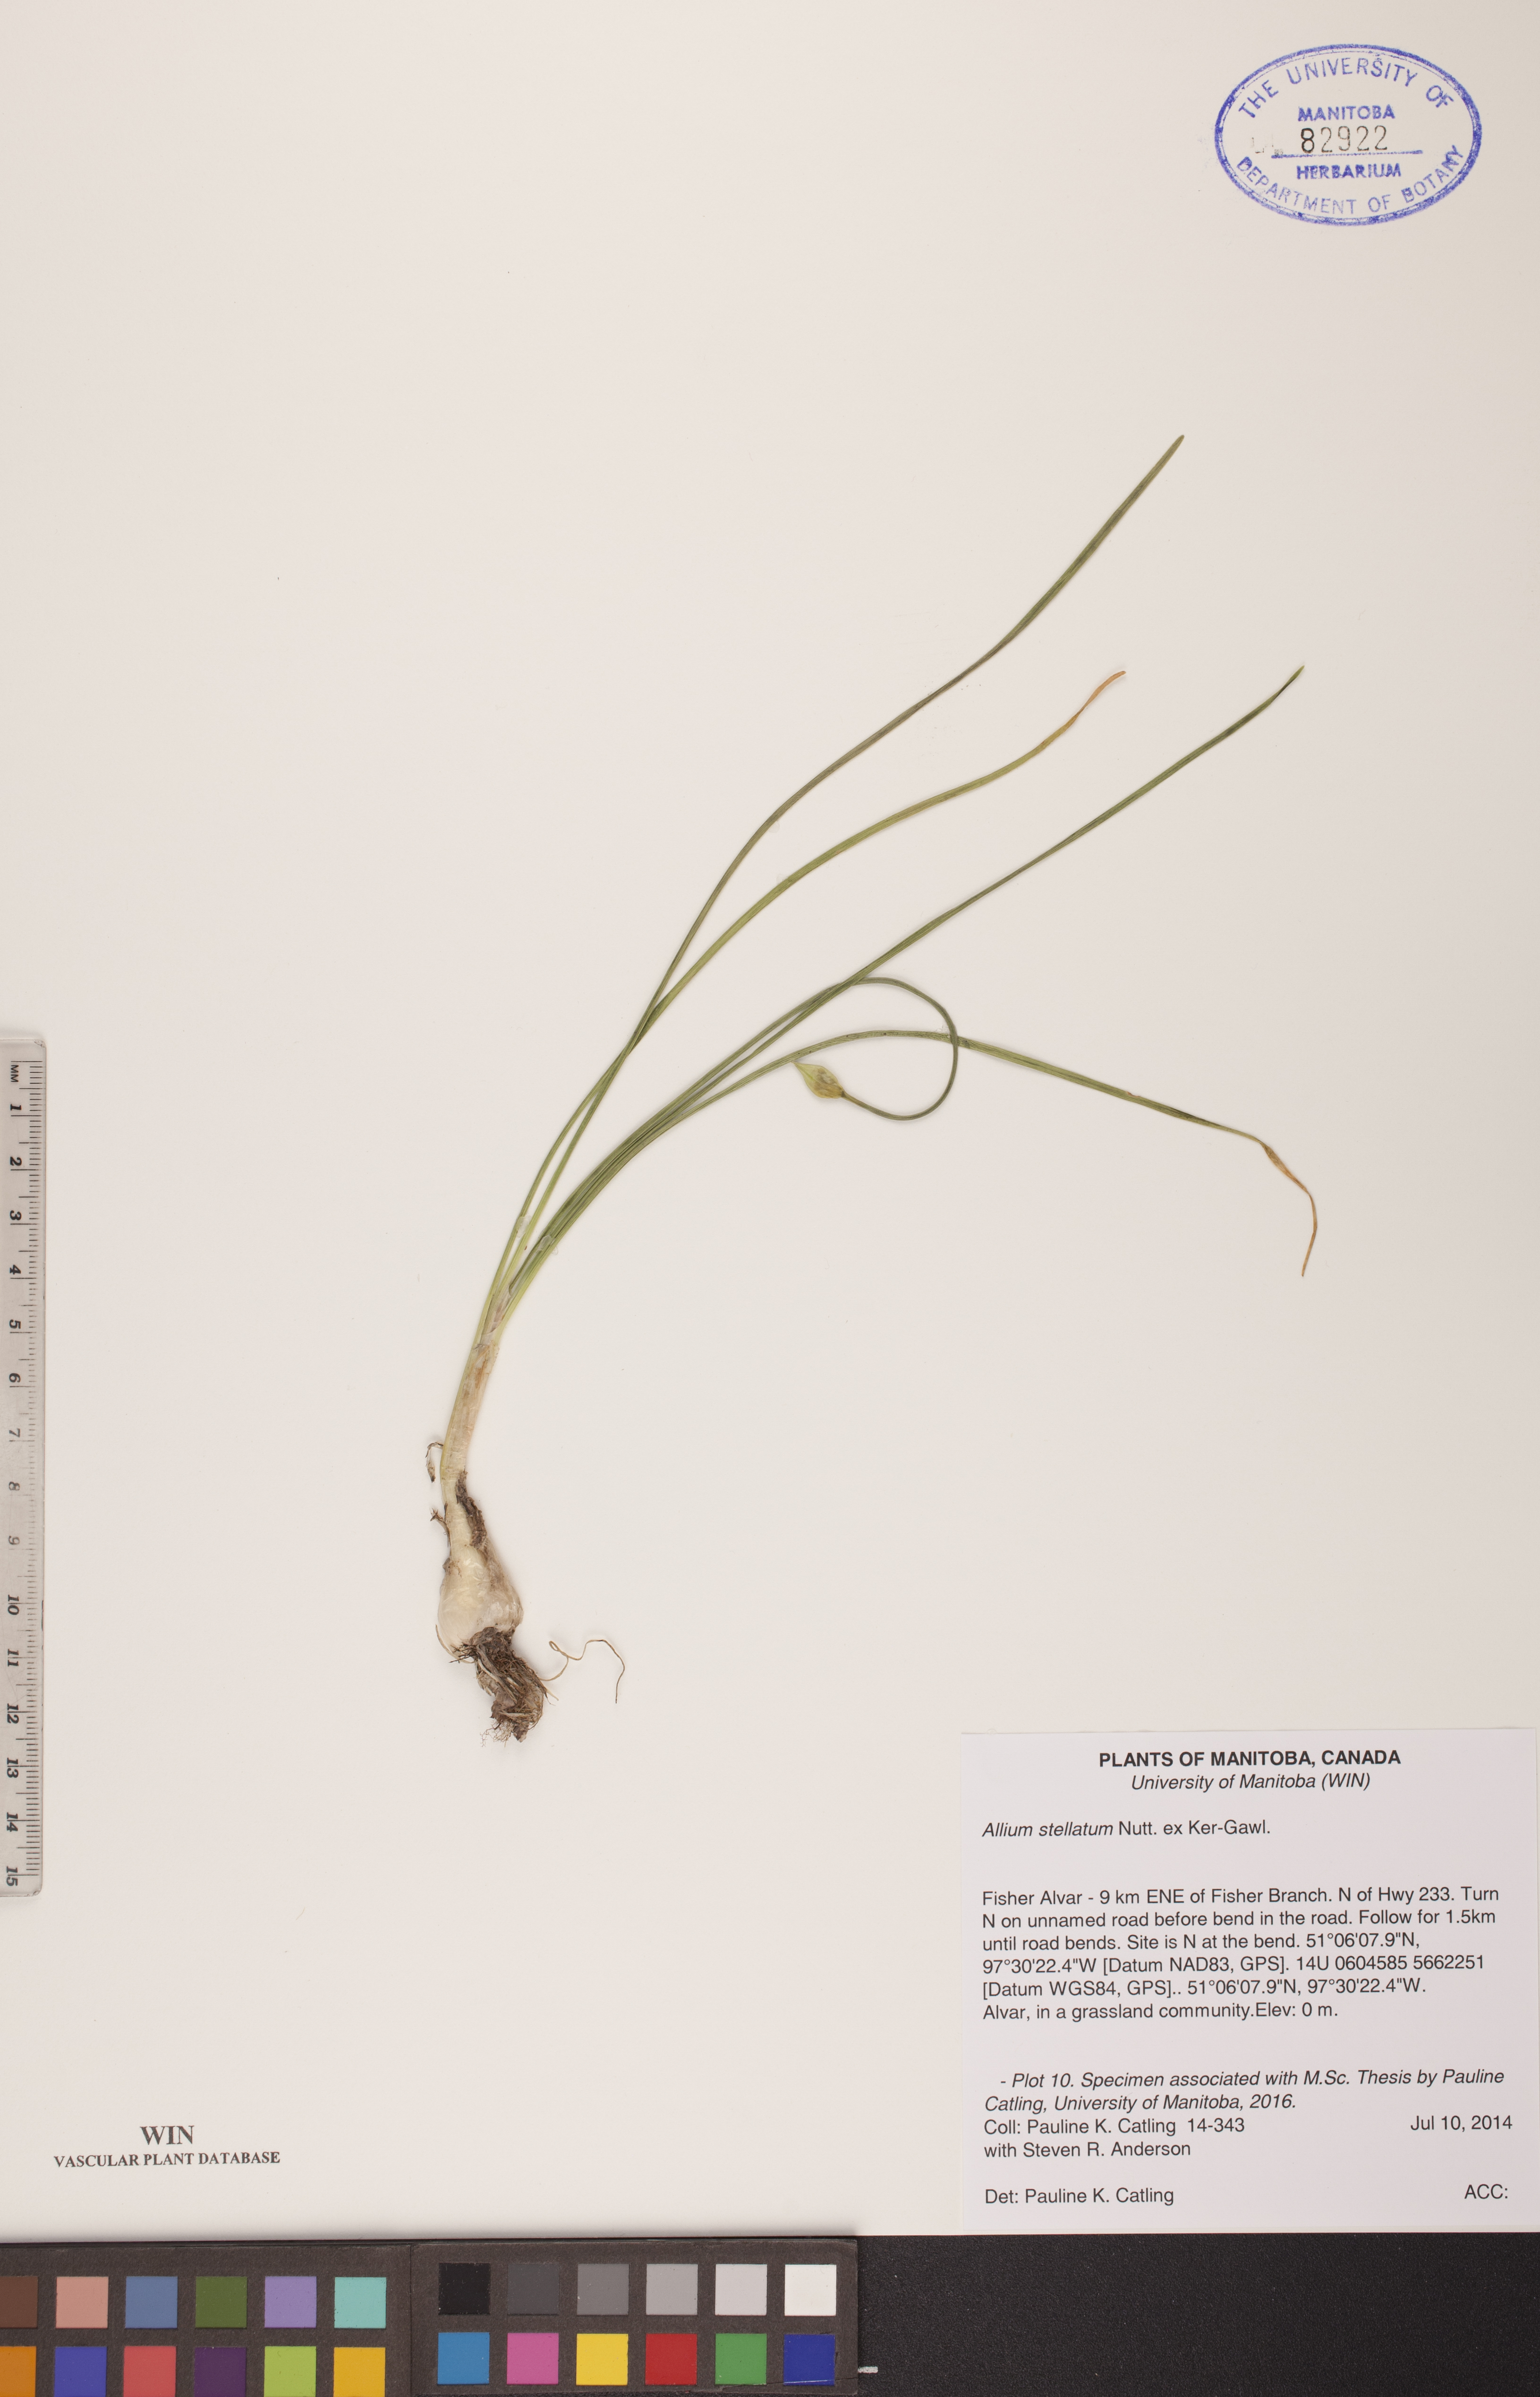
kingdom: Plantae
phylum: Tracheophyta
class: Liliopsida
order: Asparagales
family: Amaryllidaceae
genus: Allium
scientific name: Allium stellatum
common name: Autumn onion
